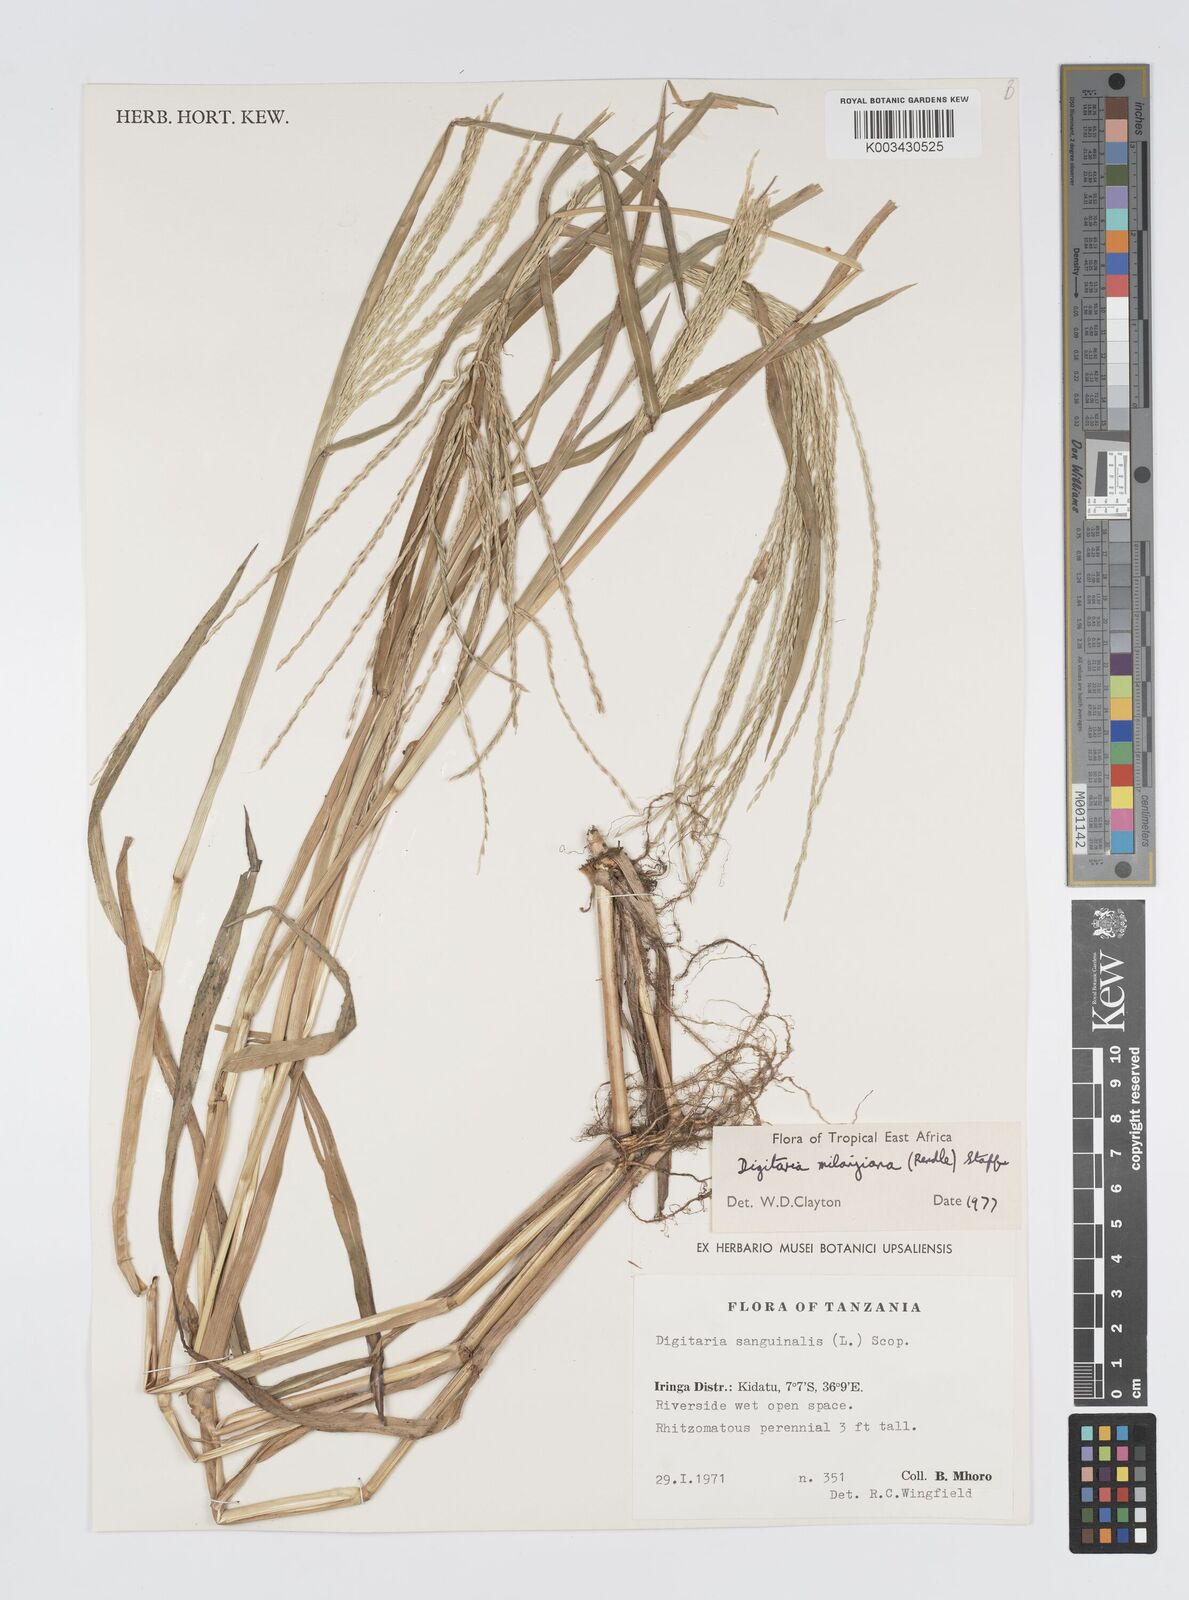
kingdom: Plantae
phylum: Tracheophyta
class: Liliopsida
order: Poales
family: Poaceae
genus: Digitaria
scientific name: Digitaria milanjiana
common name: Madagascar crabgrass
